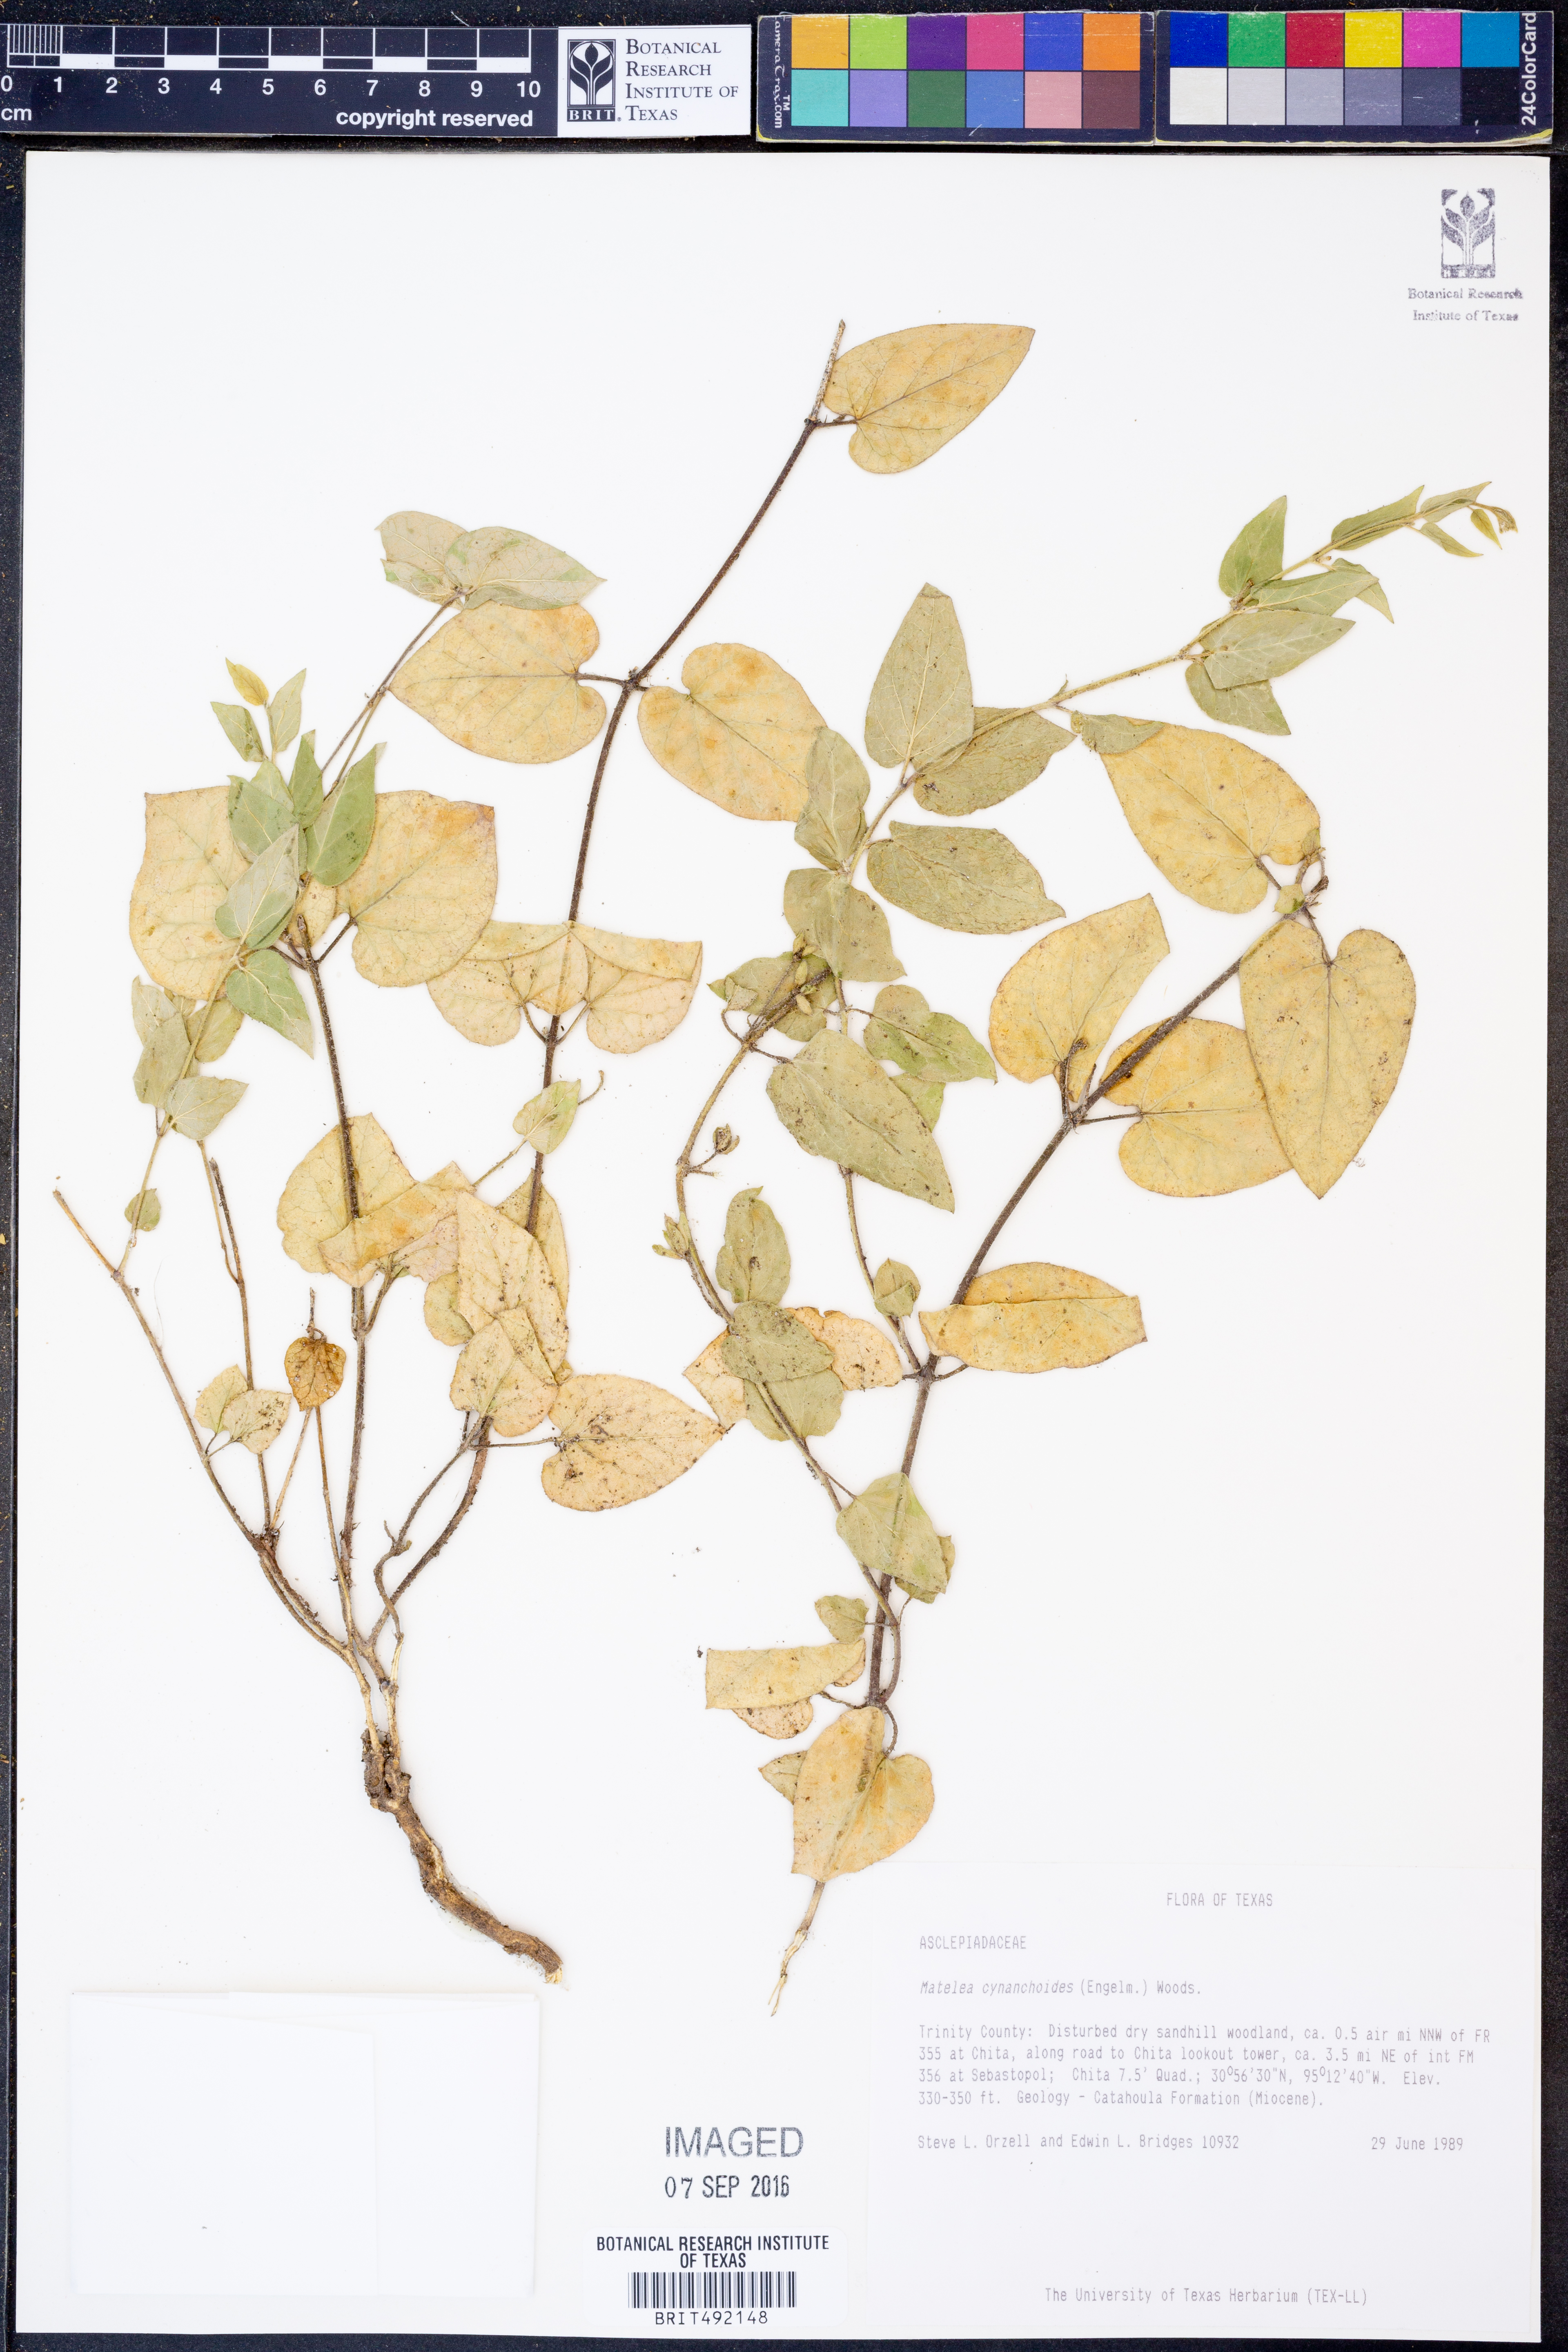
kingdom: Plantae
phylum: Tracheophyta
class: Magnoliopsida
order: Gentianales
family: Apocynaceae
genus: Matelea
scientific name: Matelea cynanchoides
